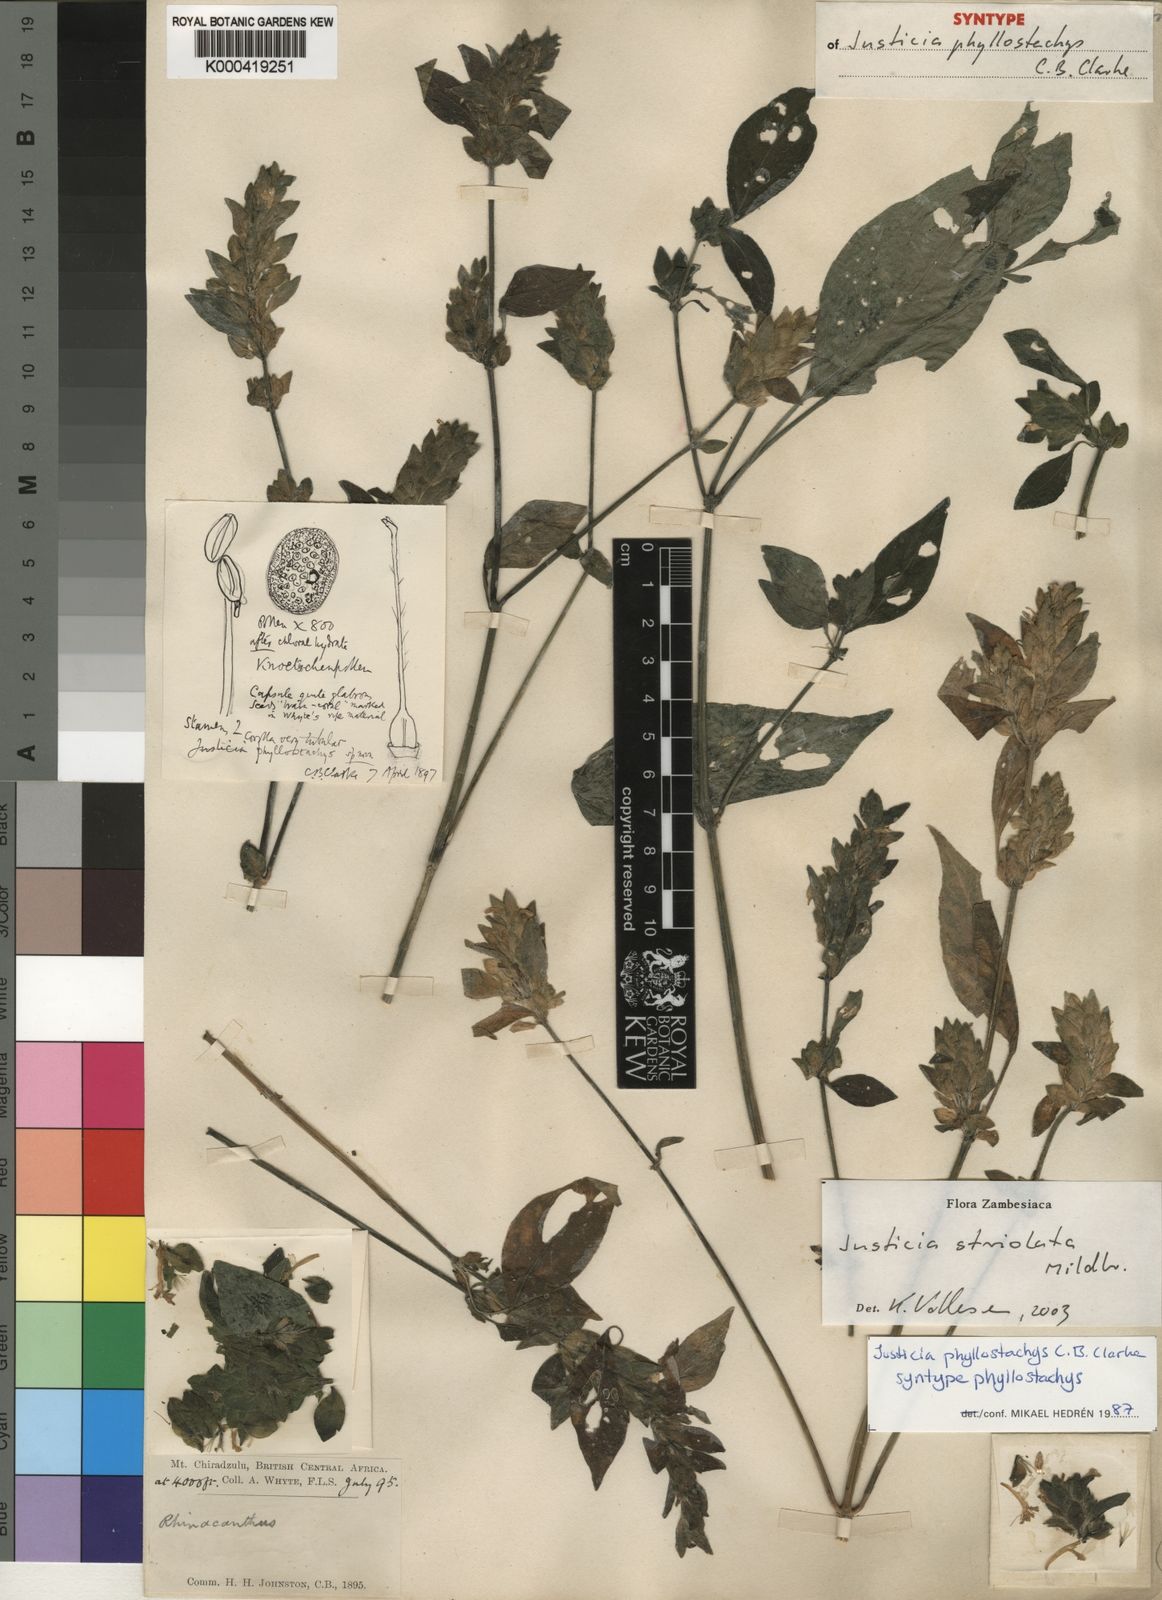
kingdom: Plantae
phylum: Tracheophyta
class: Magnoliopsida
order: Lamiales
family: Acanthaceae
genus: Justicia
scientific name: Justicia striolata
